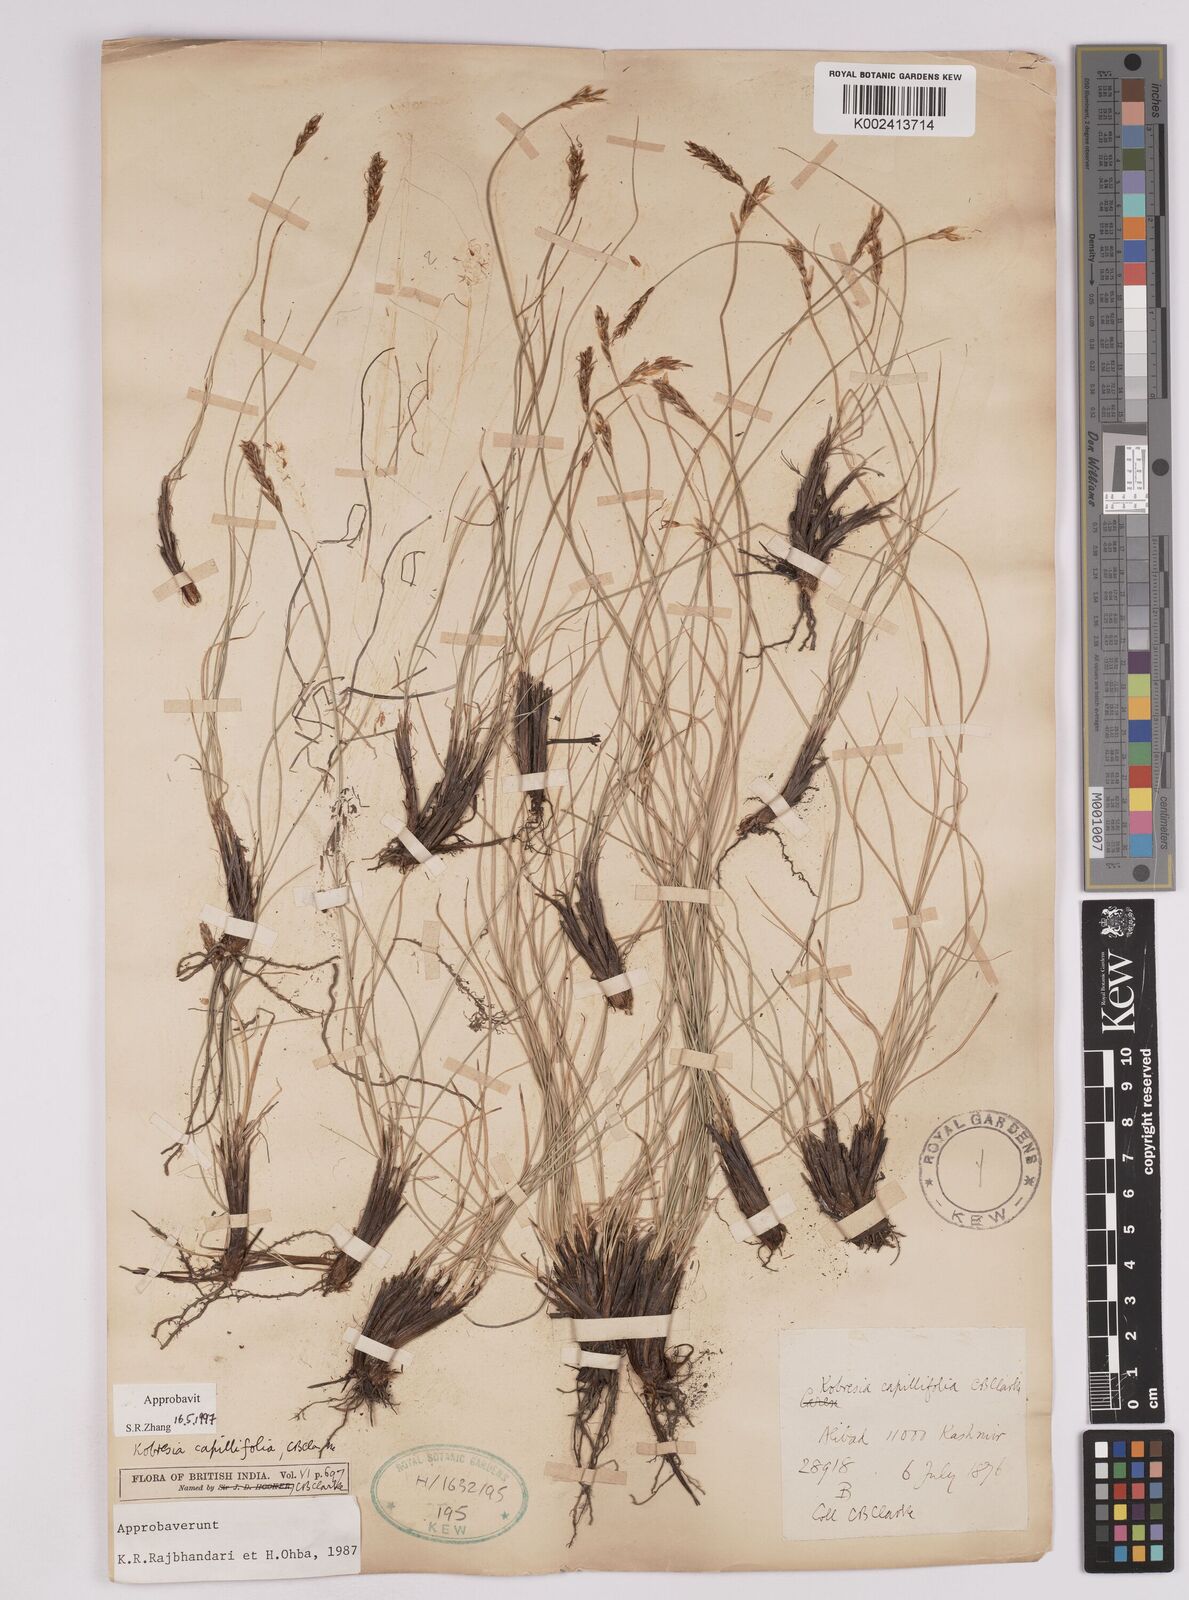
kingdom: Plantae
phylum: Tracheophyta
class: Liliopsida
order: Poales
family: Cyperaceae
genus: Carex
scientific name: Carex capillifolia
